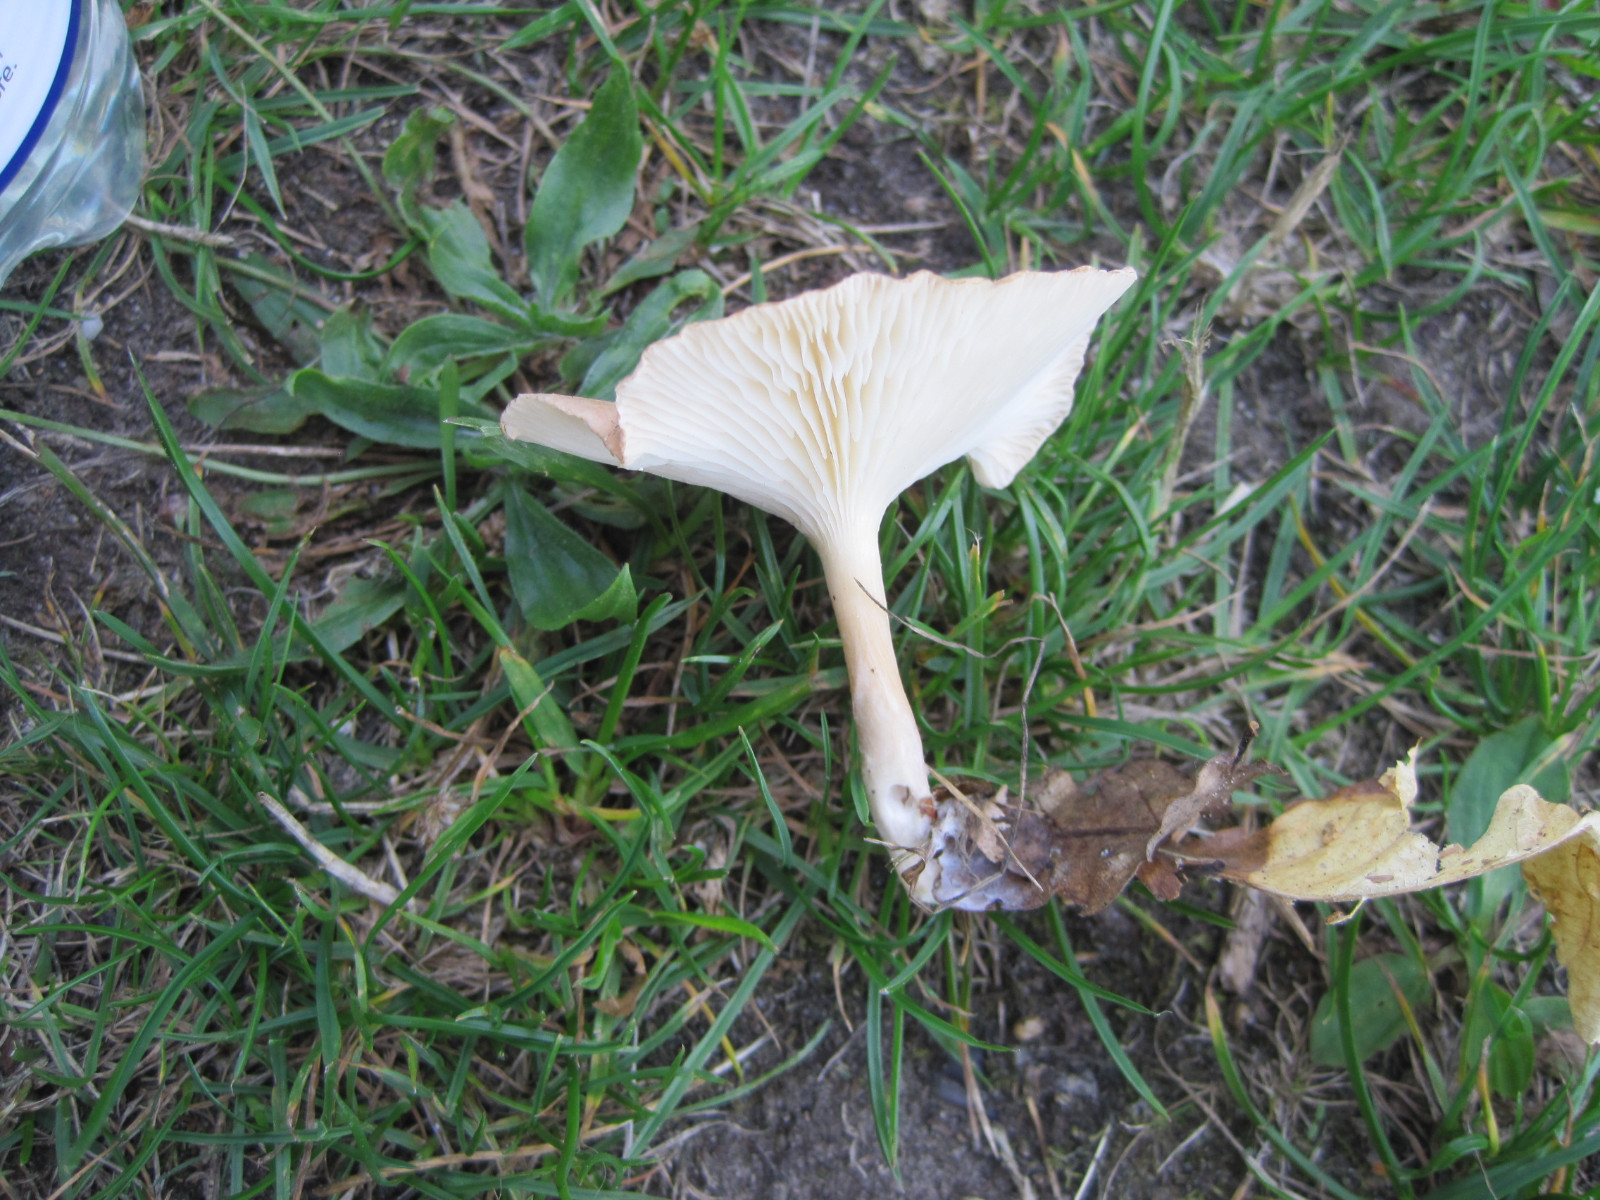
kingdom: Fungi
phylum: Basidiomycota
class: Agaricomycetes
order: Agaricales
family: Tricholomataceae
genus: Infundibulicybe
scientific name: Infundibulicybe gibba
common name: almindelig tragthat
